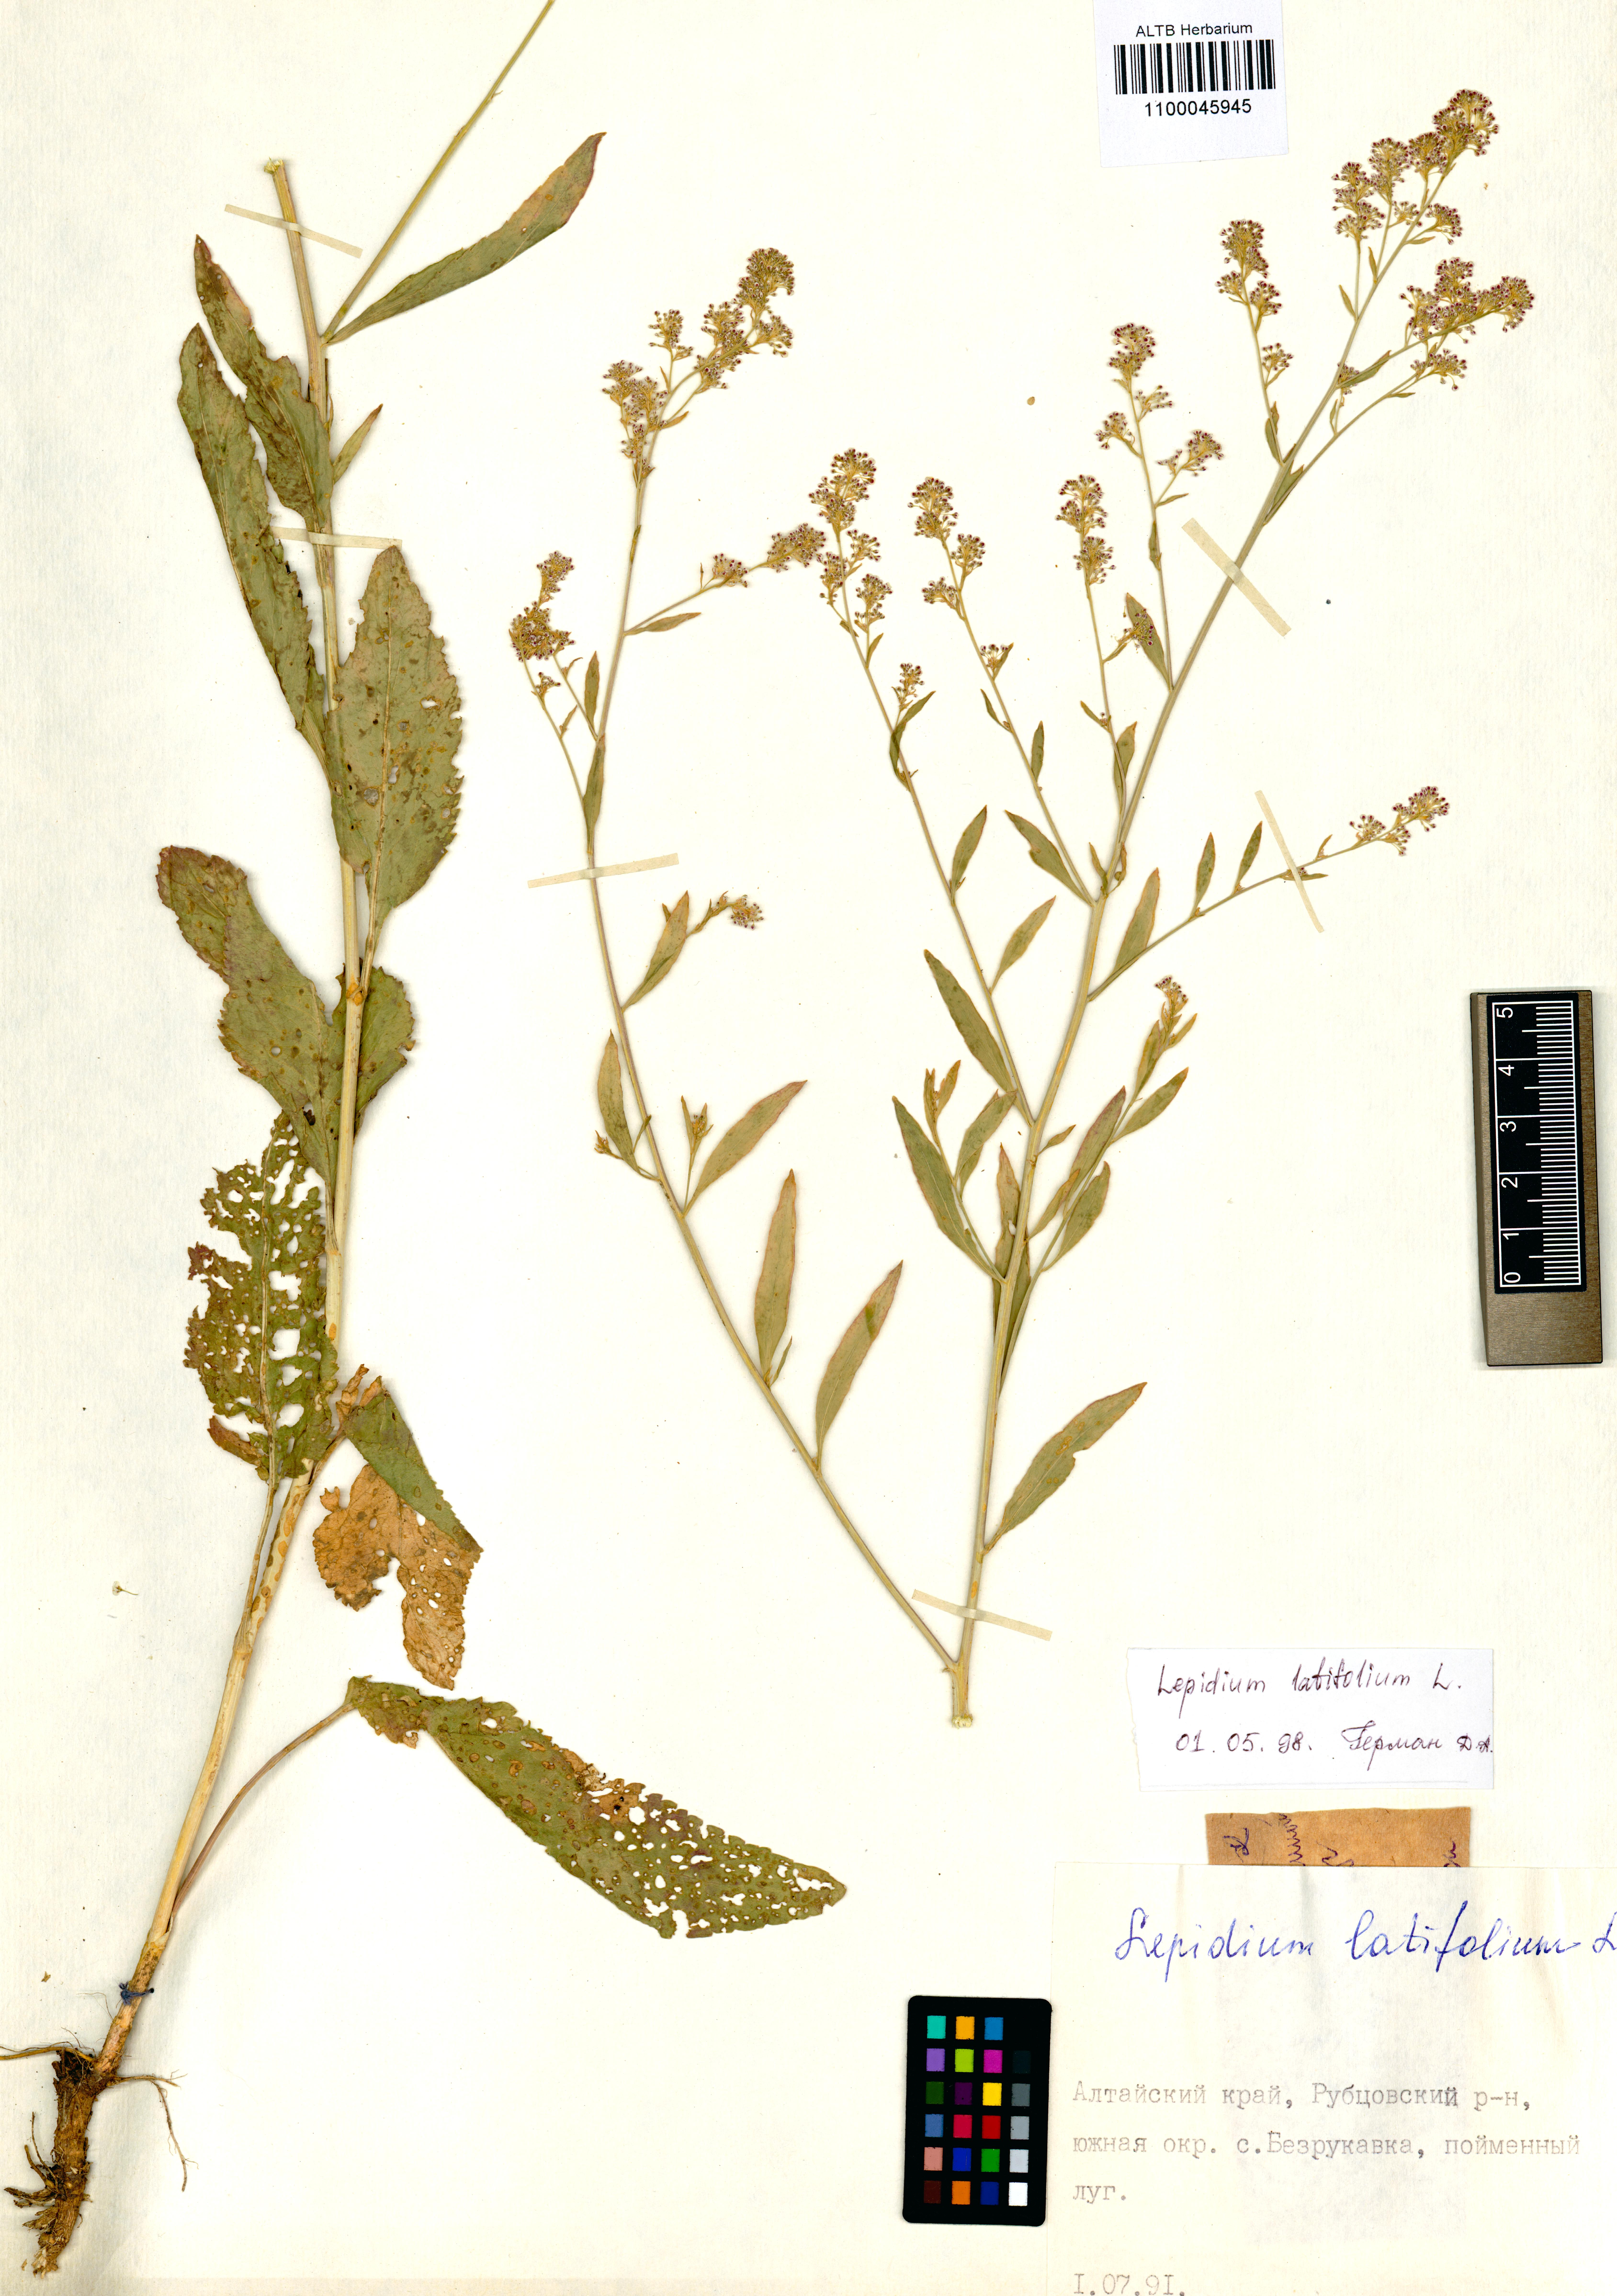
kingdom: Plantae
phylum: Tracheophyta
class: Magnoliopsida
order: Brassicales
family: Brassicaceae
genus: Lepidium
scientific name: Lepidium latifolium
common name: Dittander
